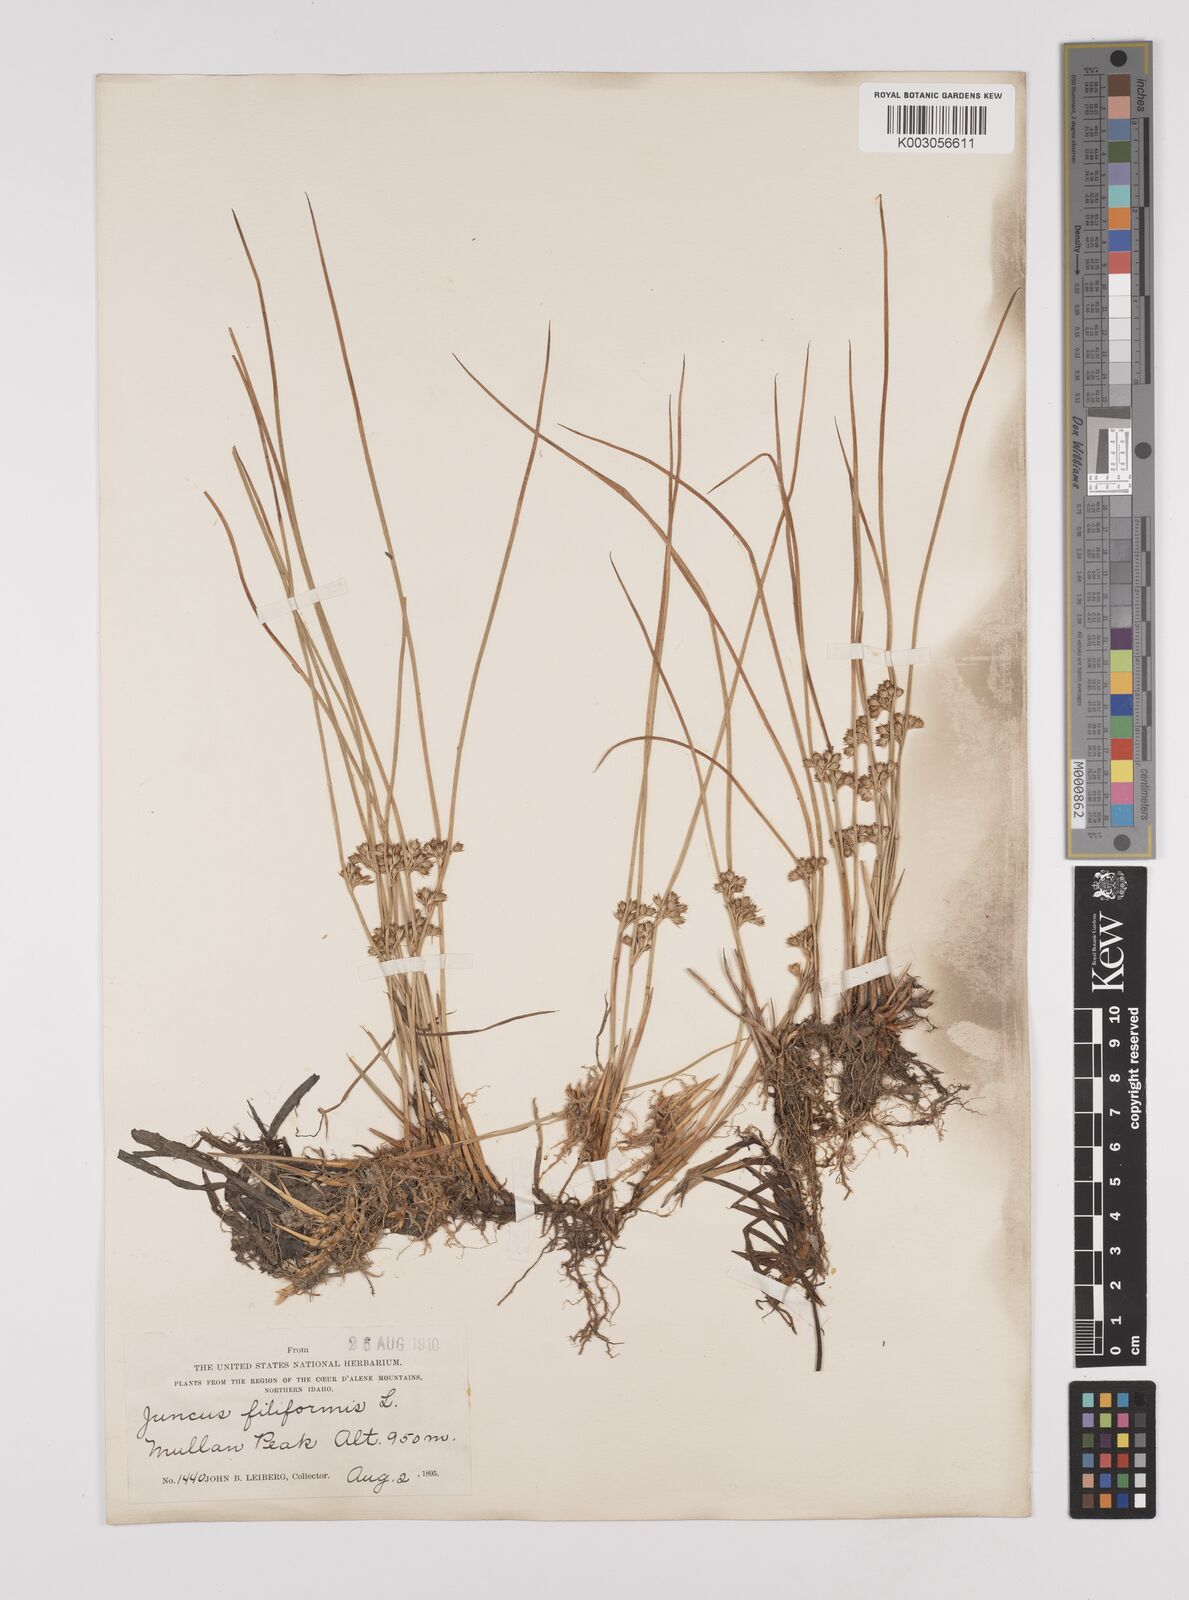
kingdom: Plantae
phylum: Tracheophyta
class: Liliopsida
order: Poales
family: Juncaceae
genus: Juncus
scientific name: Juncus filiformis
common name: Thread rush
